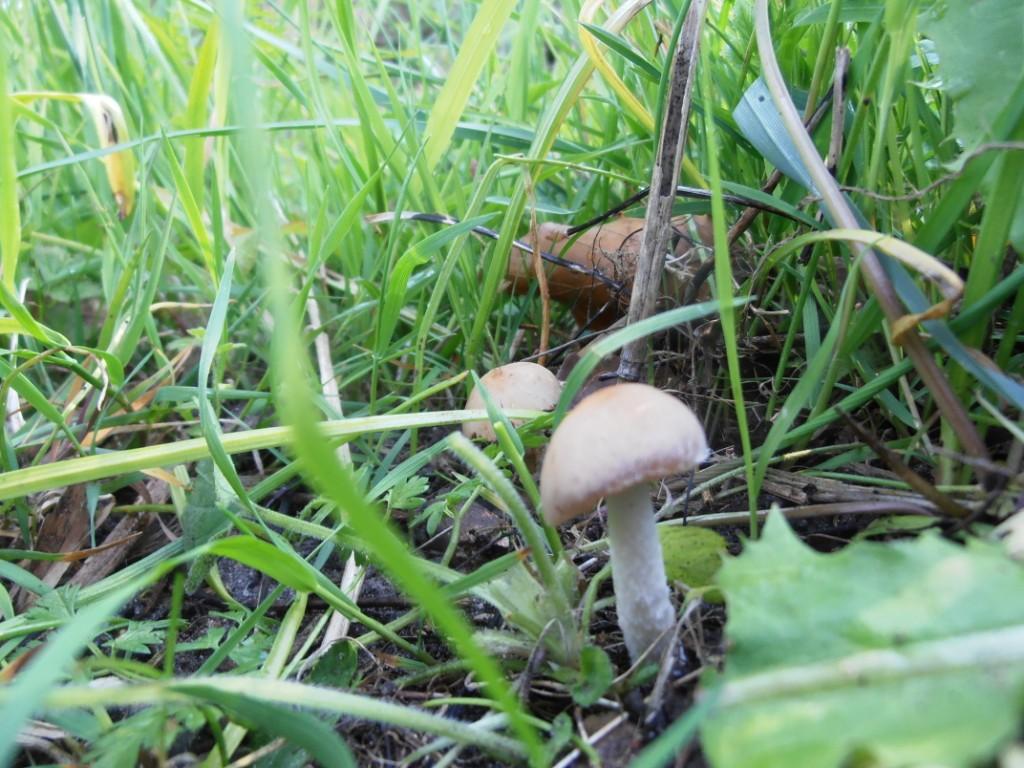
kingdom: Fungi
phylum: Basidiomycota
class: Agaricomycetes
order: Agaricales
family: Psathyrellaceae
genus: Psathyrella
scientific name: Psathyrella spadiceogrisea
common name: gråbrun mørkhat
